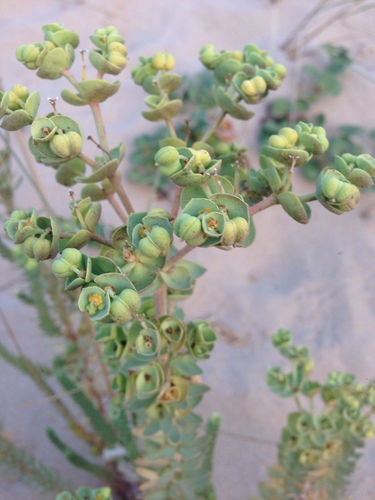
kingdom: Plantae
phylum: Tracheophyta
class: Magnoliopsida
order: Malpighiales
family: Euphorbiaceae
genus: Euphorbia
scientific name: Euphorbia paralias
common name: Sea spurge
